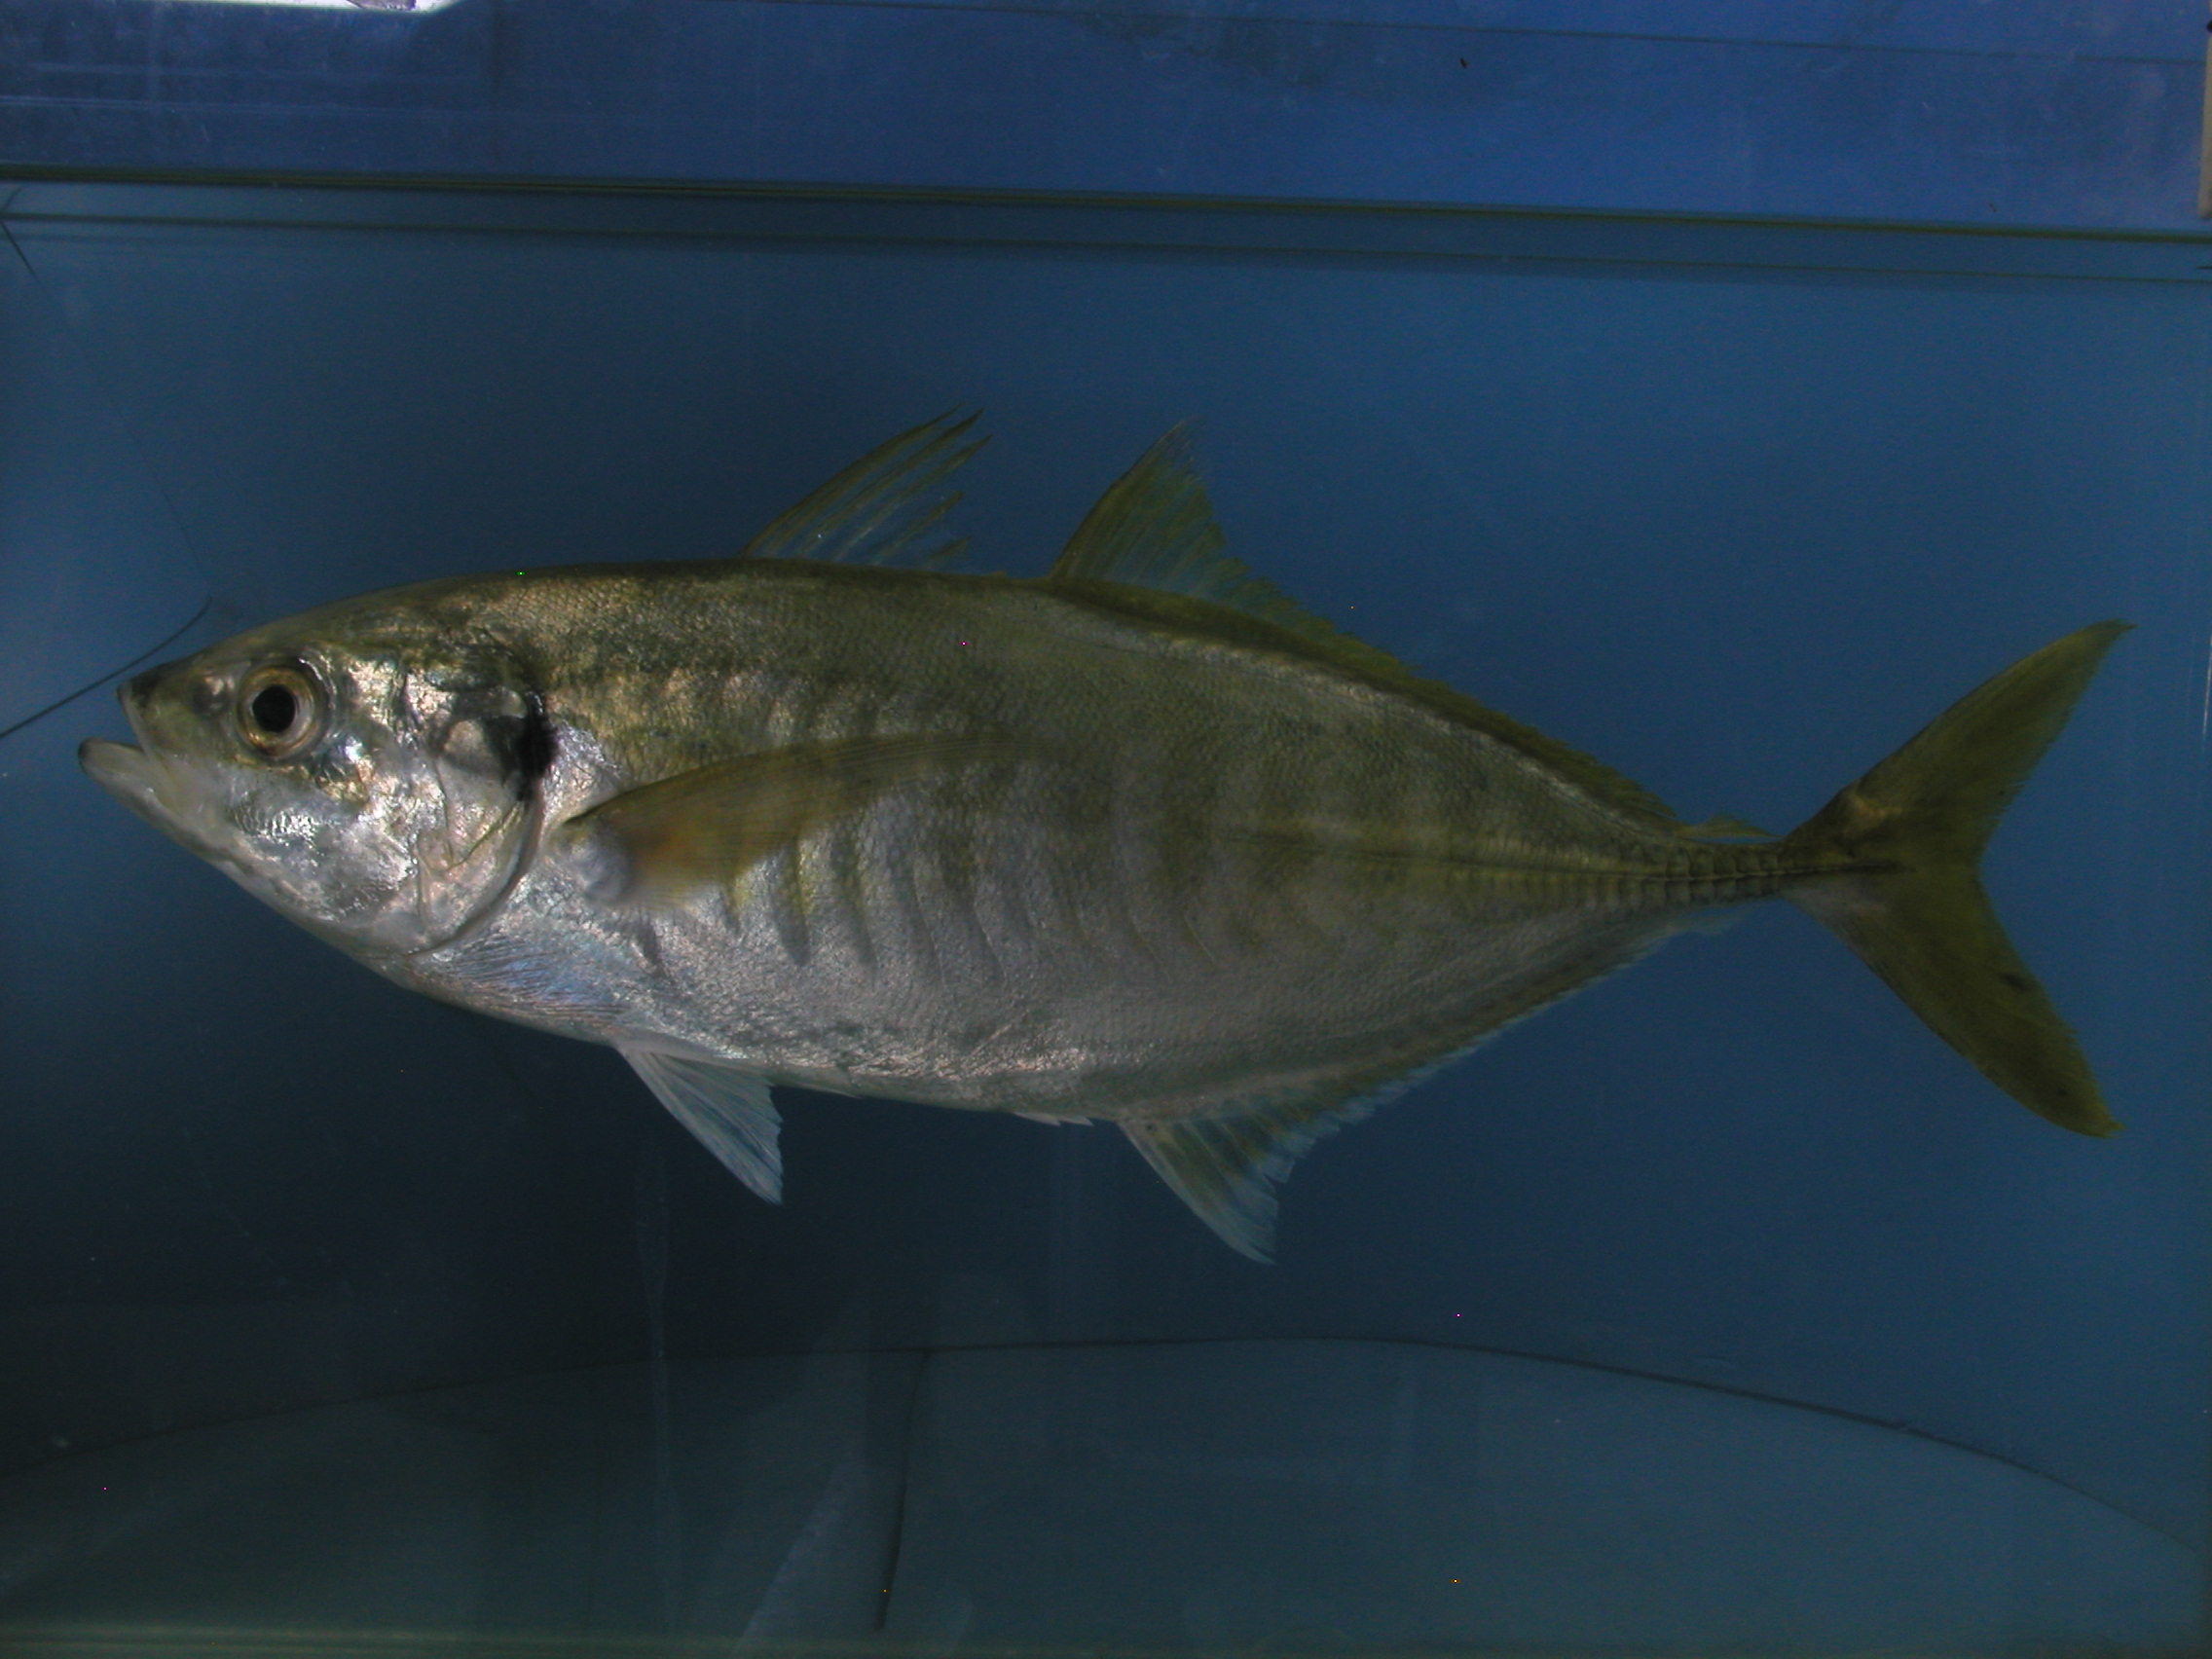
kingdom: Animalia
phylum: Chordata
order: Perciformes
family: Carangidae
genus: Atule
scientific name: Atule mate
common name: Yellowtail scad
